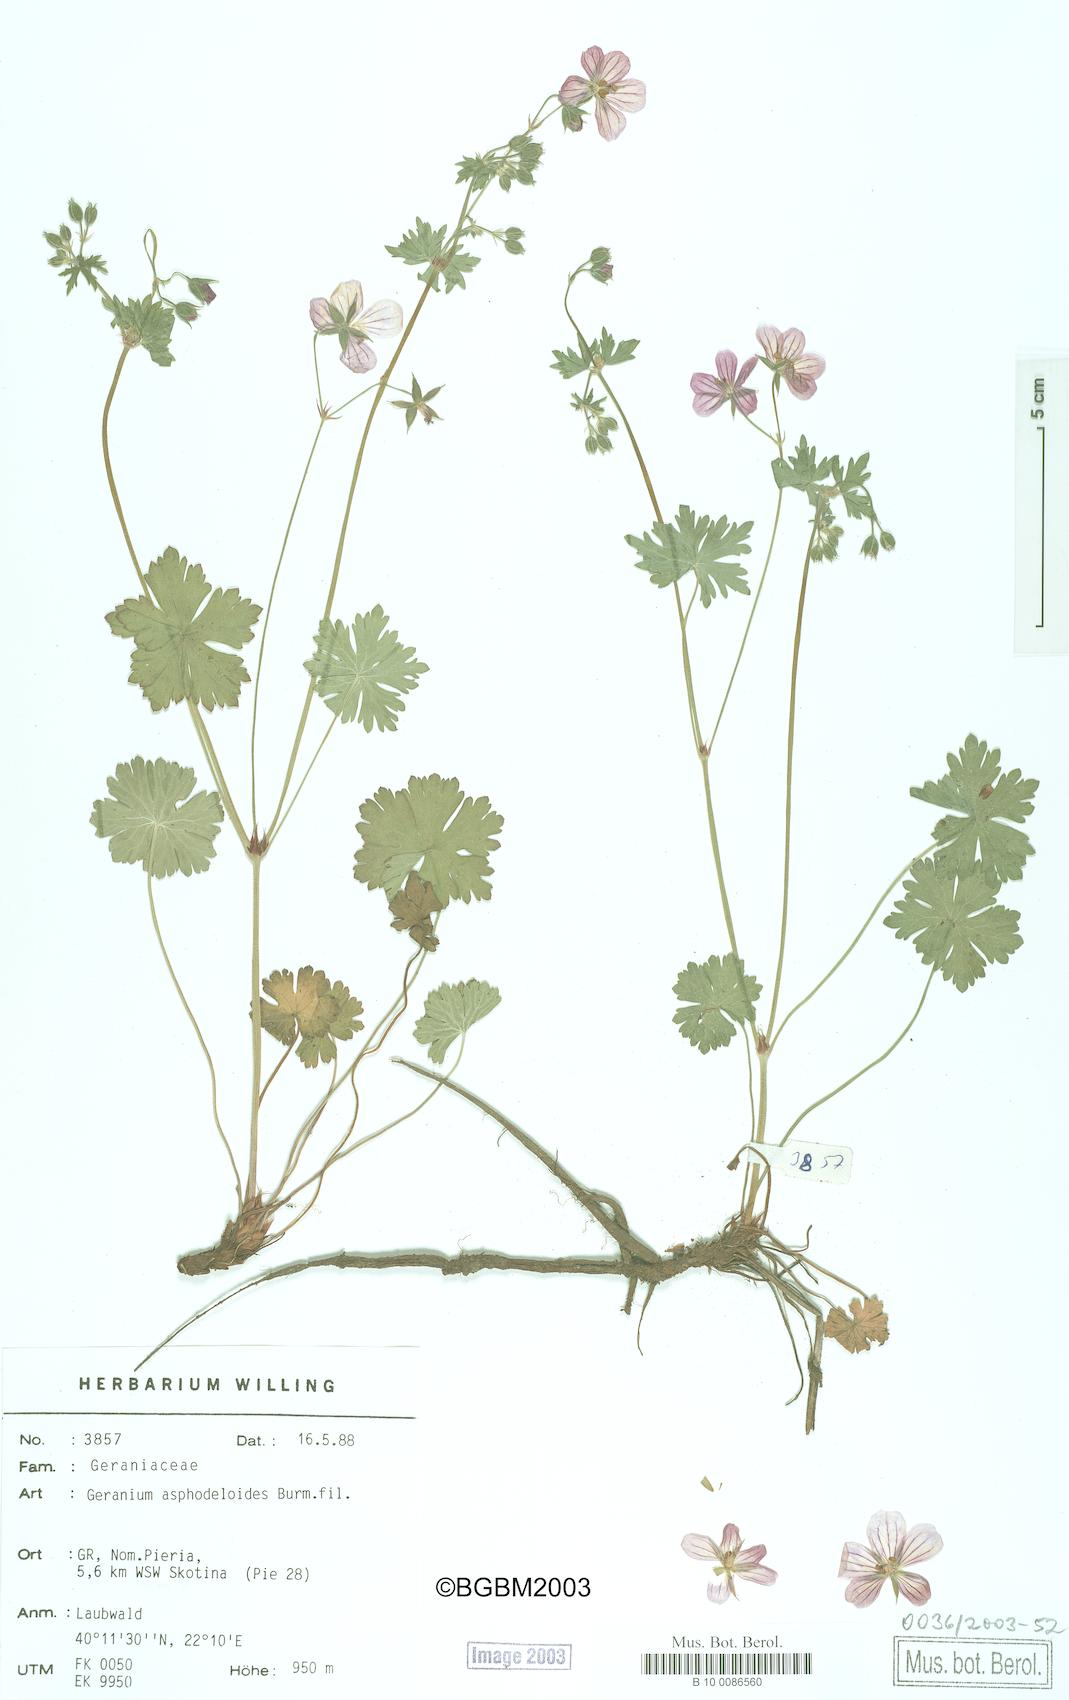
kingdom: Plantae
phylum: Tracheophyta
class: Magnoliopsida
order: Geraniales
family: Geraniaceae
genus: Geranium
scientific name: Geranium asphodeloides
